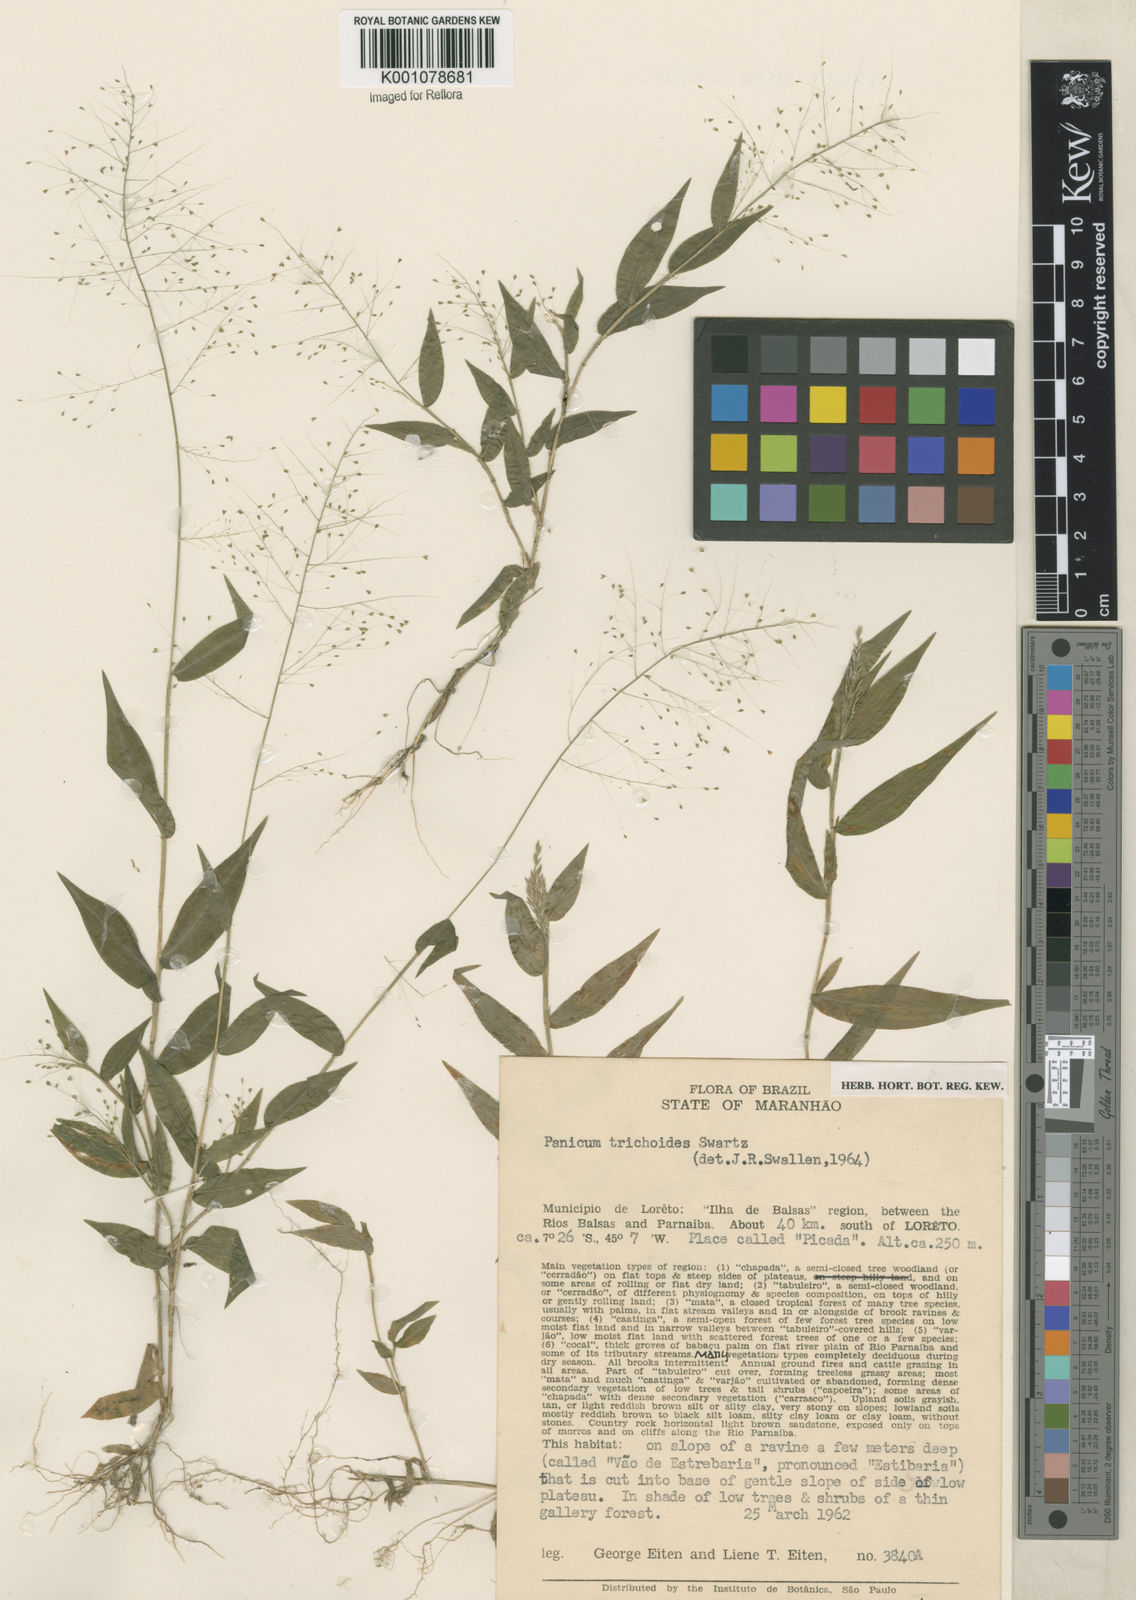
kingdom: Plantae
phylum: Tracheophyta
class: Liliopsida
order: Poales
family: Poaceae
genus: Panicum
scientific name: Panicum trichoides
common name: Tickle grass
